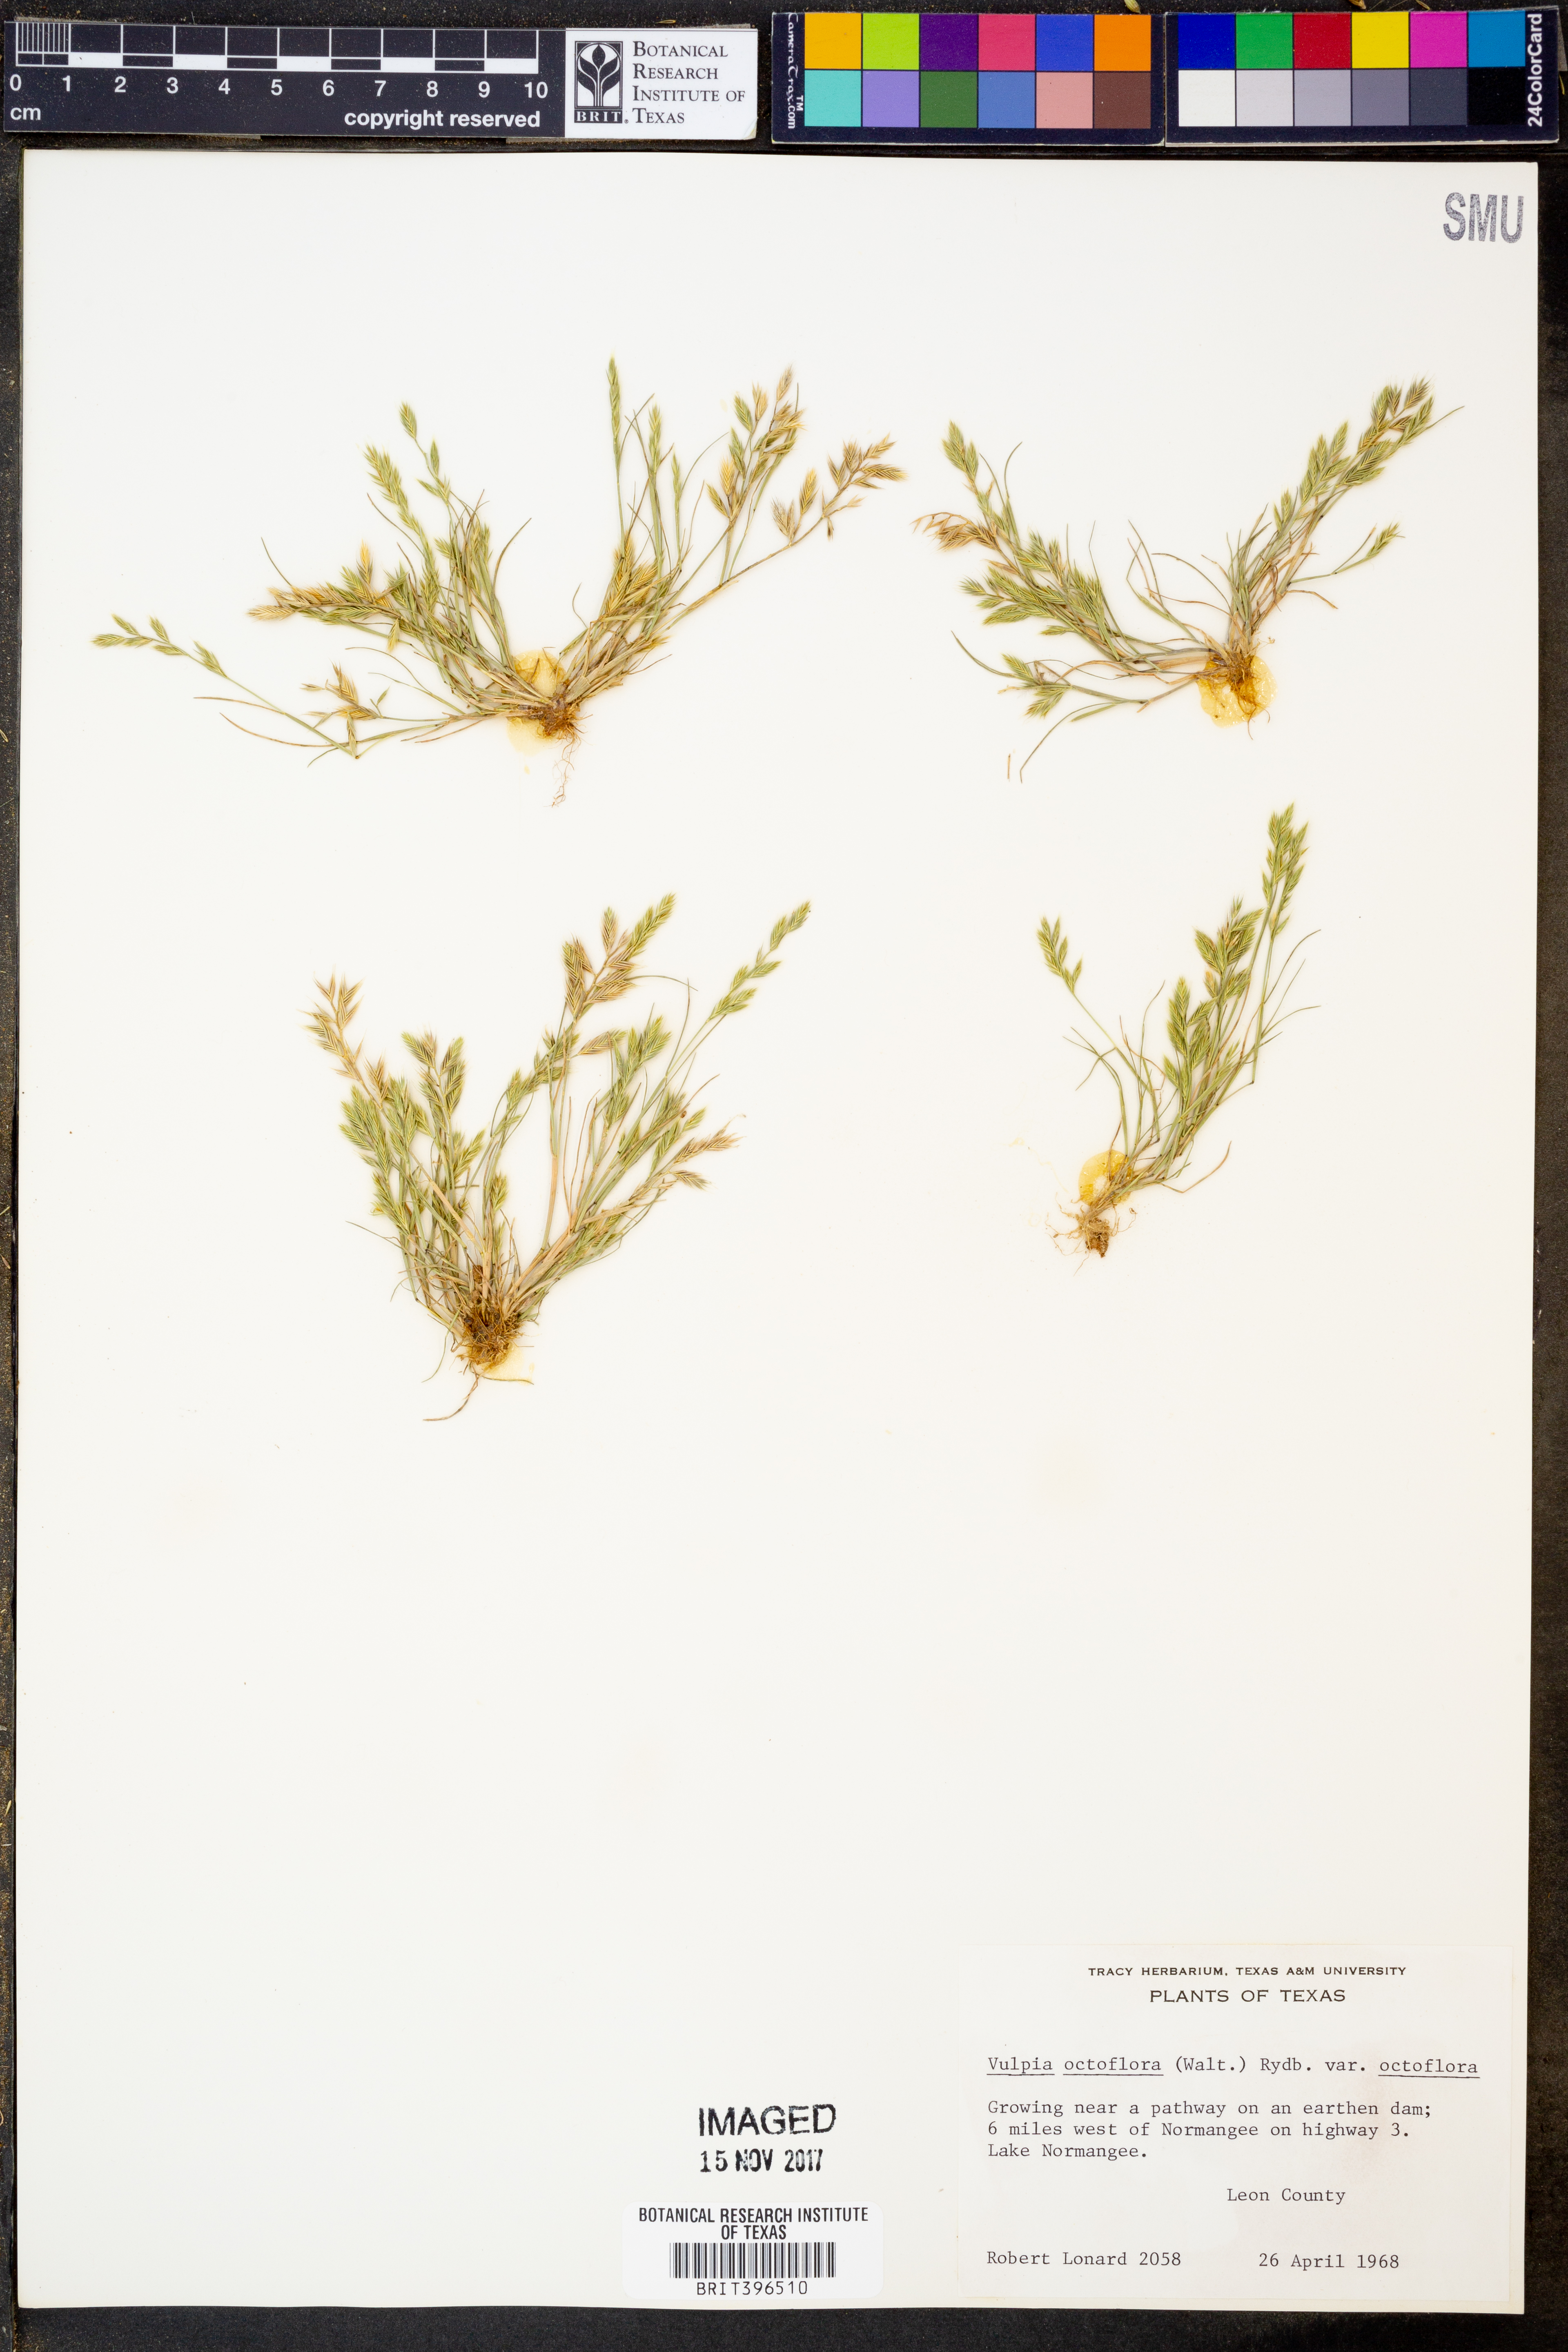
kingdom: Plantae
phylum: Tracheophyta
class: Liliopsida
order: Poales
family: Poaceae
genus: Festuca
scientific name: Festuca octoflora
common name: Sixweeks grass
